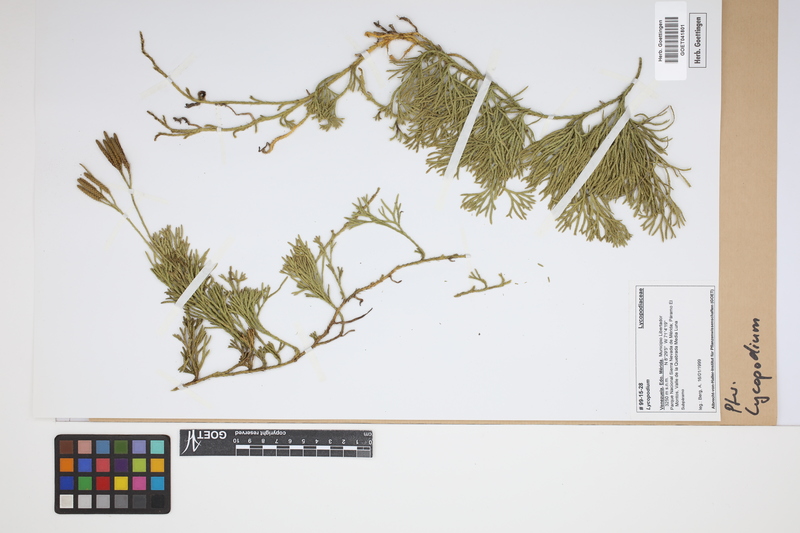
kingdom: Plantae
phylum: Tracheophyta
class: Lycopodiopsida
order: Lycopodiales
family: Lycopodiaceae
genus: Lycopodium
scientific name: Lycopodium
